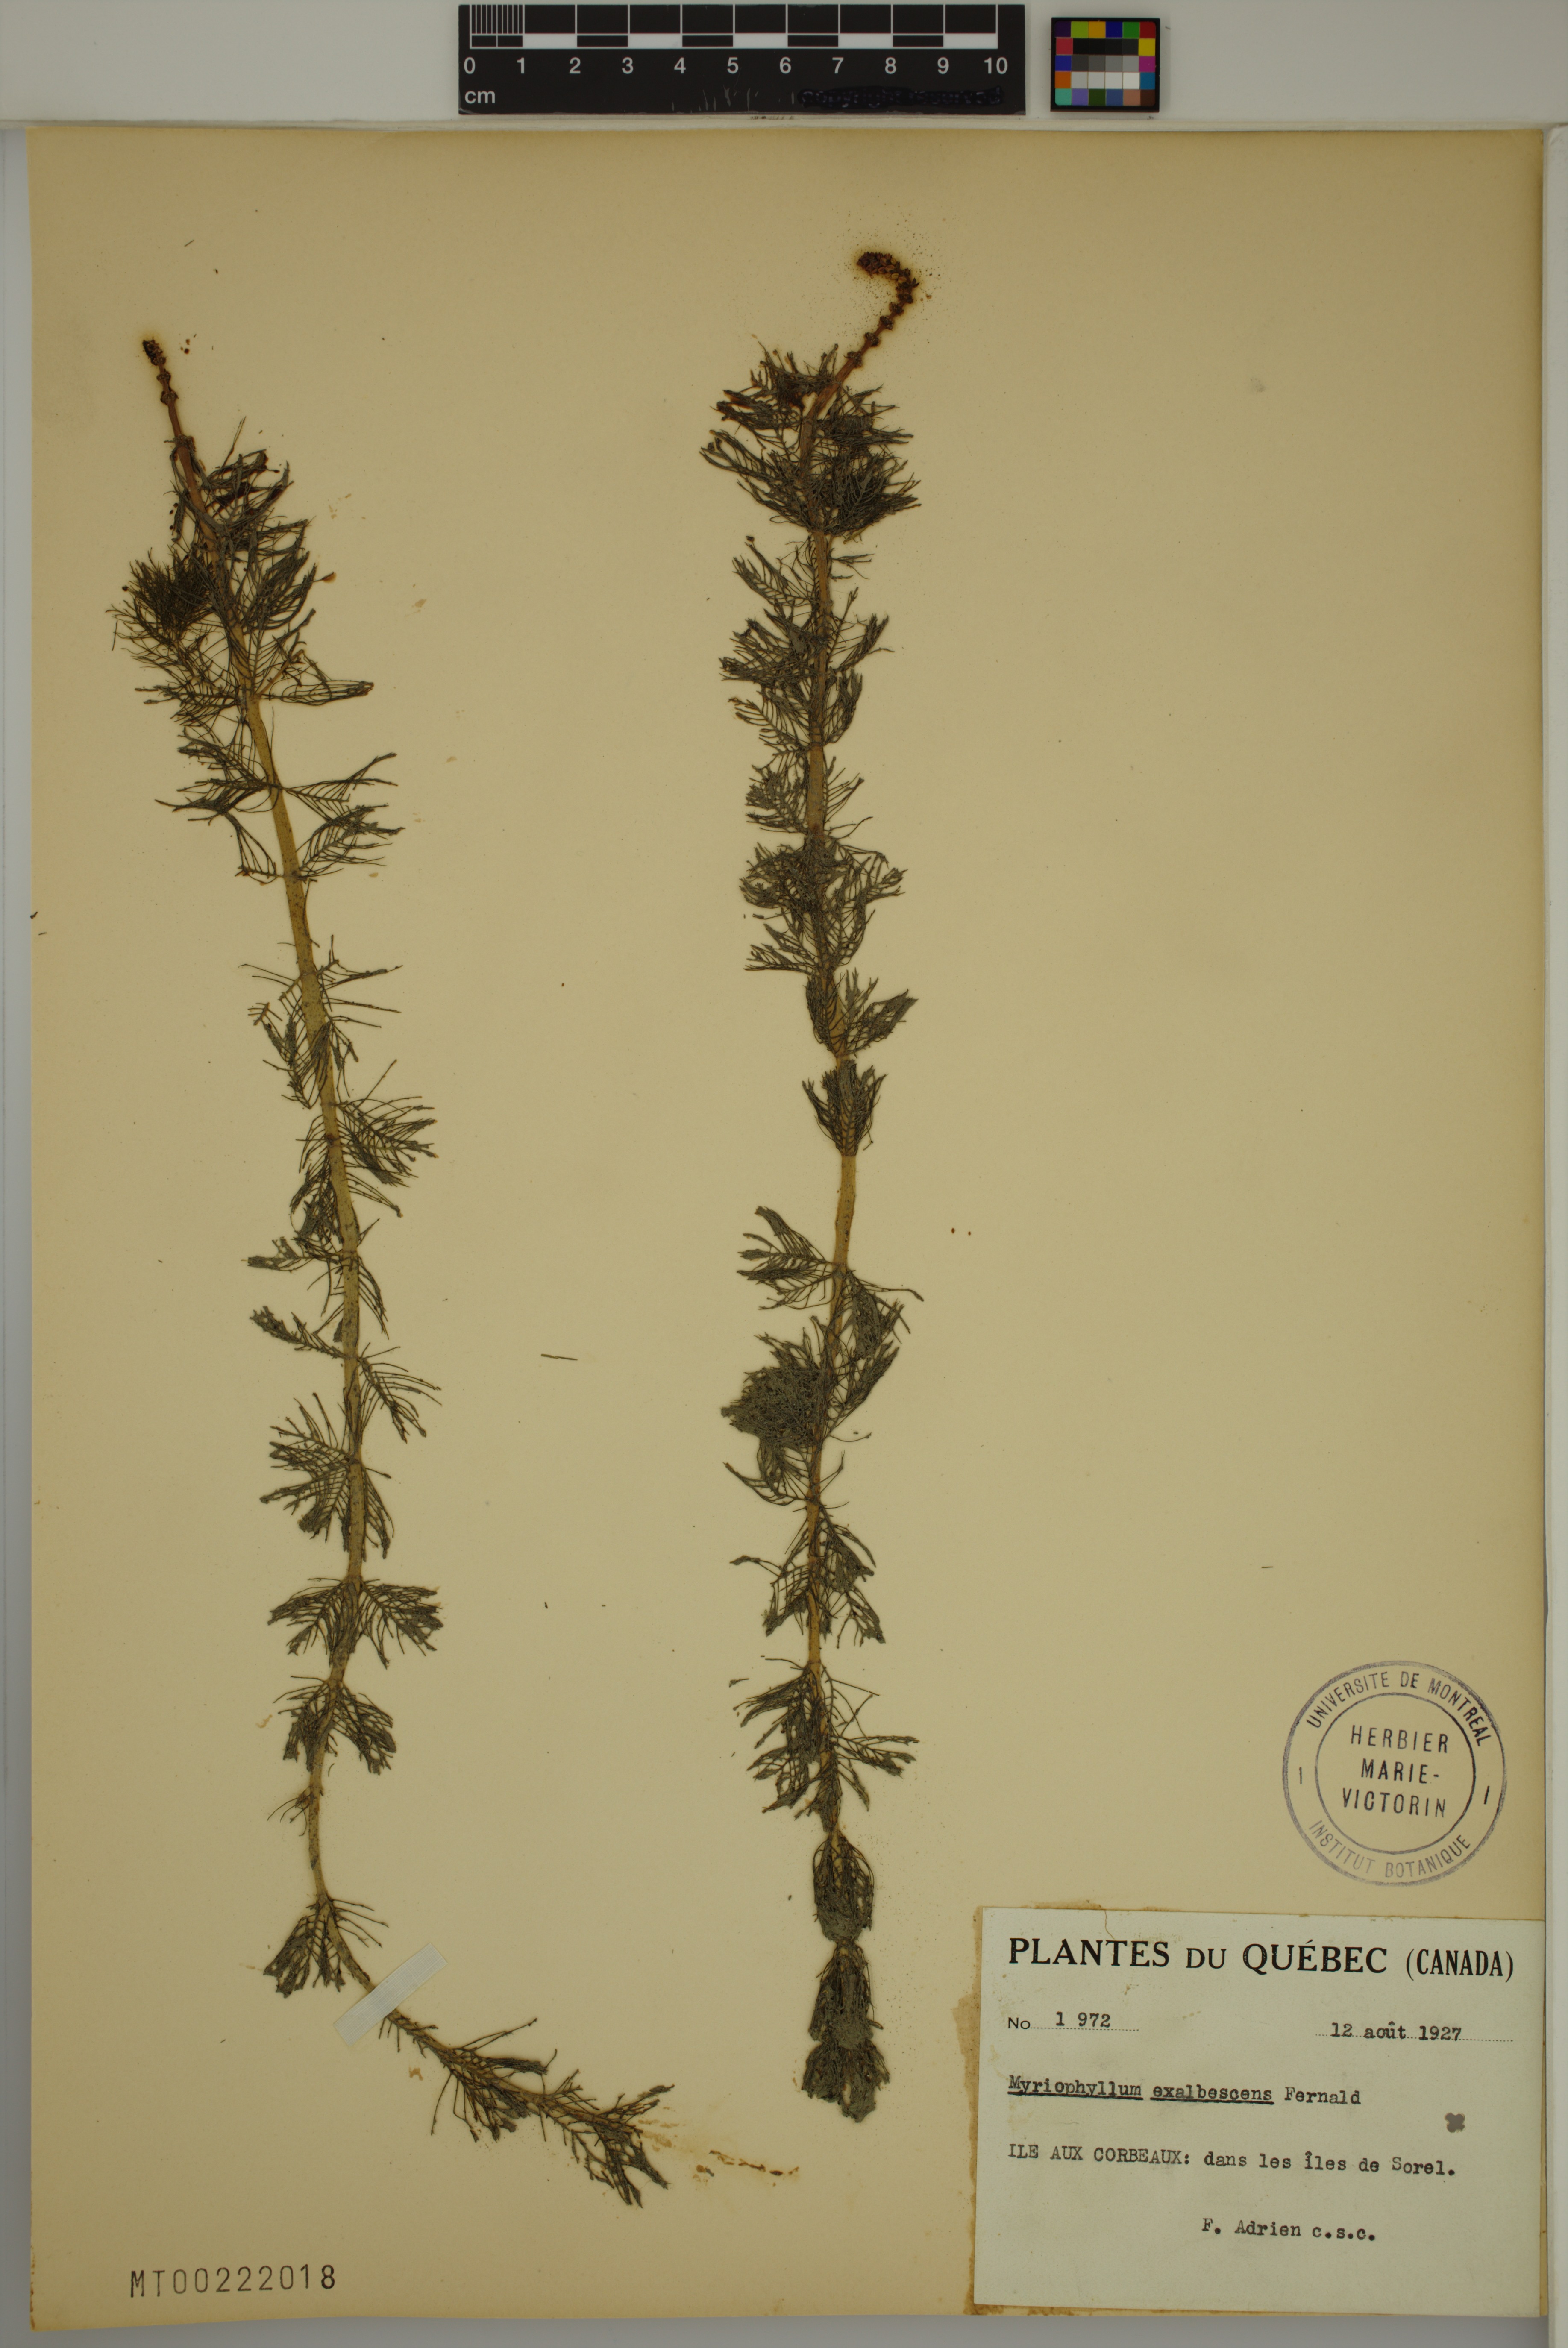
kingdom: Plantae
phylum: Tracheophyta
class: Magnoliopsida
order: Saxifragales
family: Haloragaceae
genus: Myriophyllum
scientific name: Myriophyllum sibiricum
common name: Siberian water-milfoil
